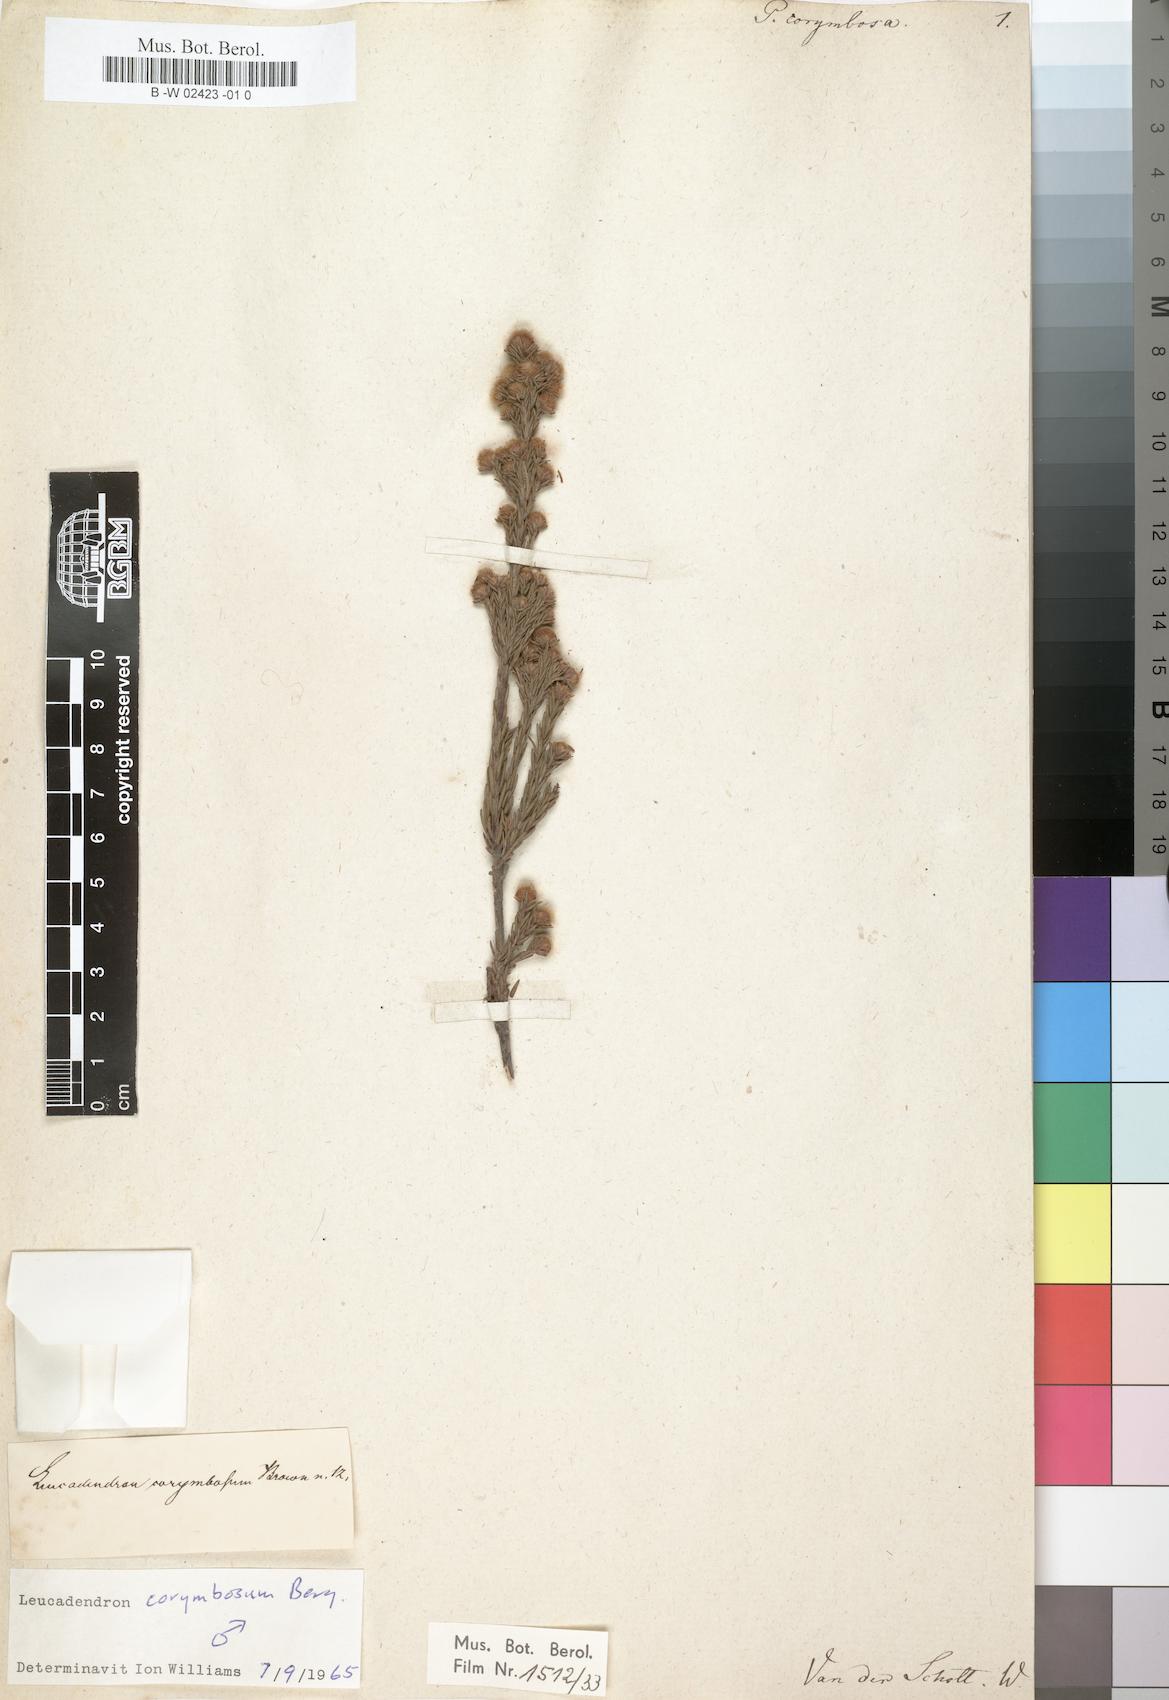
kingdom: Plantae
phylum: Tracheophyta
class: Magnoliopsida
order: Proteales
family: Proteaceae
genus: Leucadendron
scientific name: Leucadendron corymbosum
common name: Swartveld conebush
